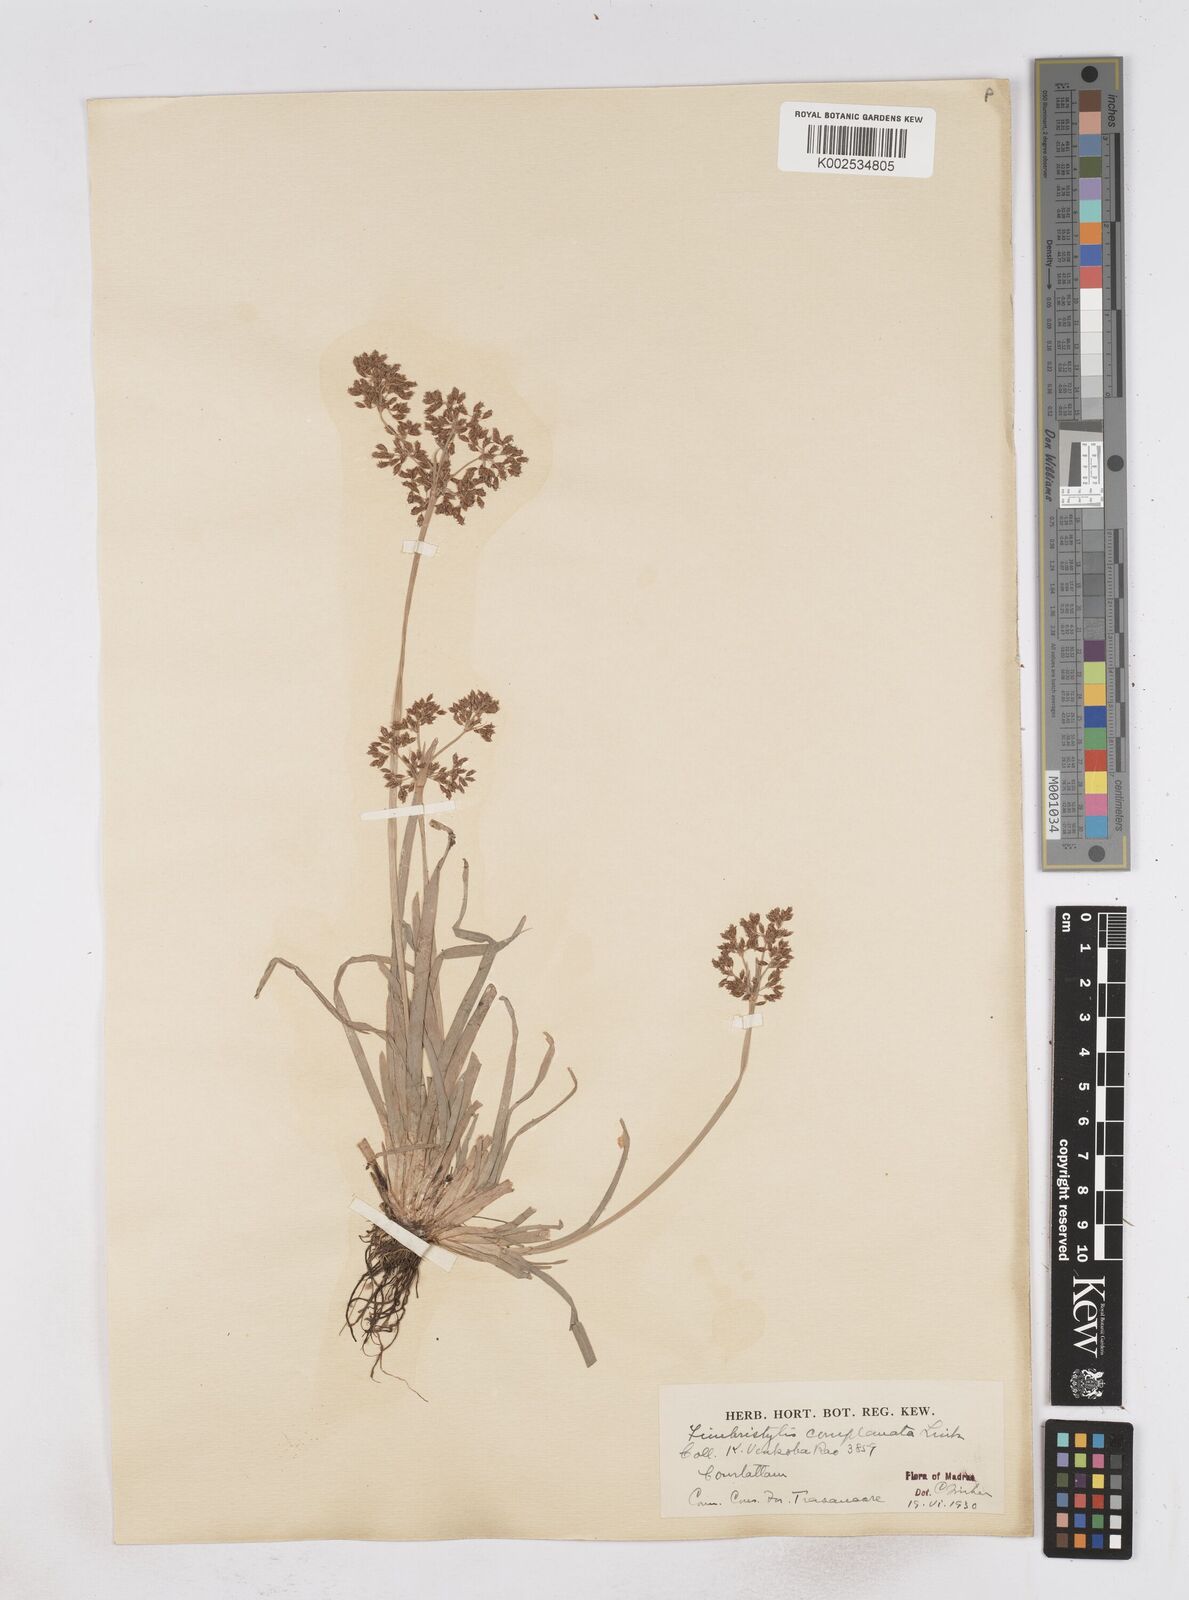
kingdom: Plantae
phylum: Tracheophyta
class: Liliopsida
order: Poales
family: Cyperaceae
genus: Fimbristylis
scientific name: Fimbristylis complanata
